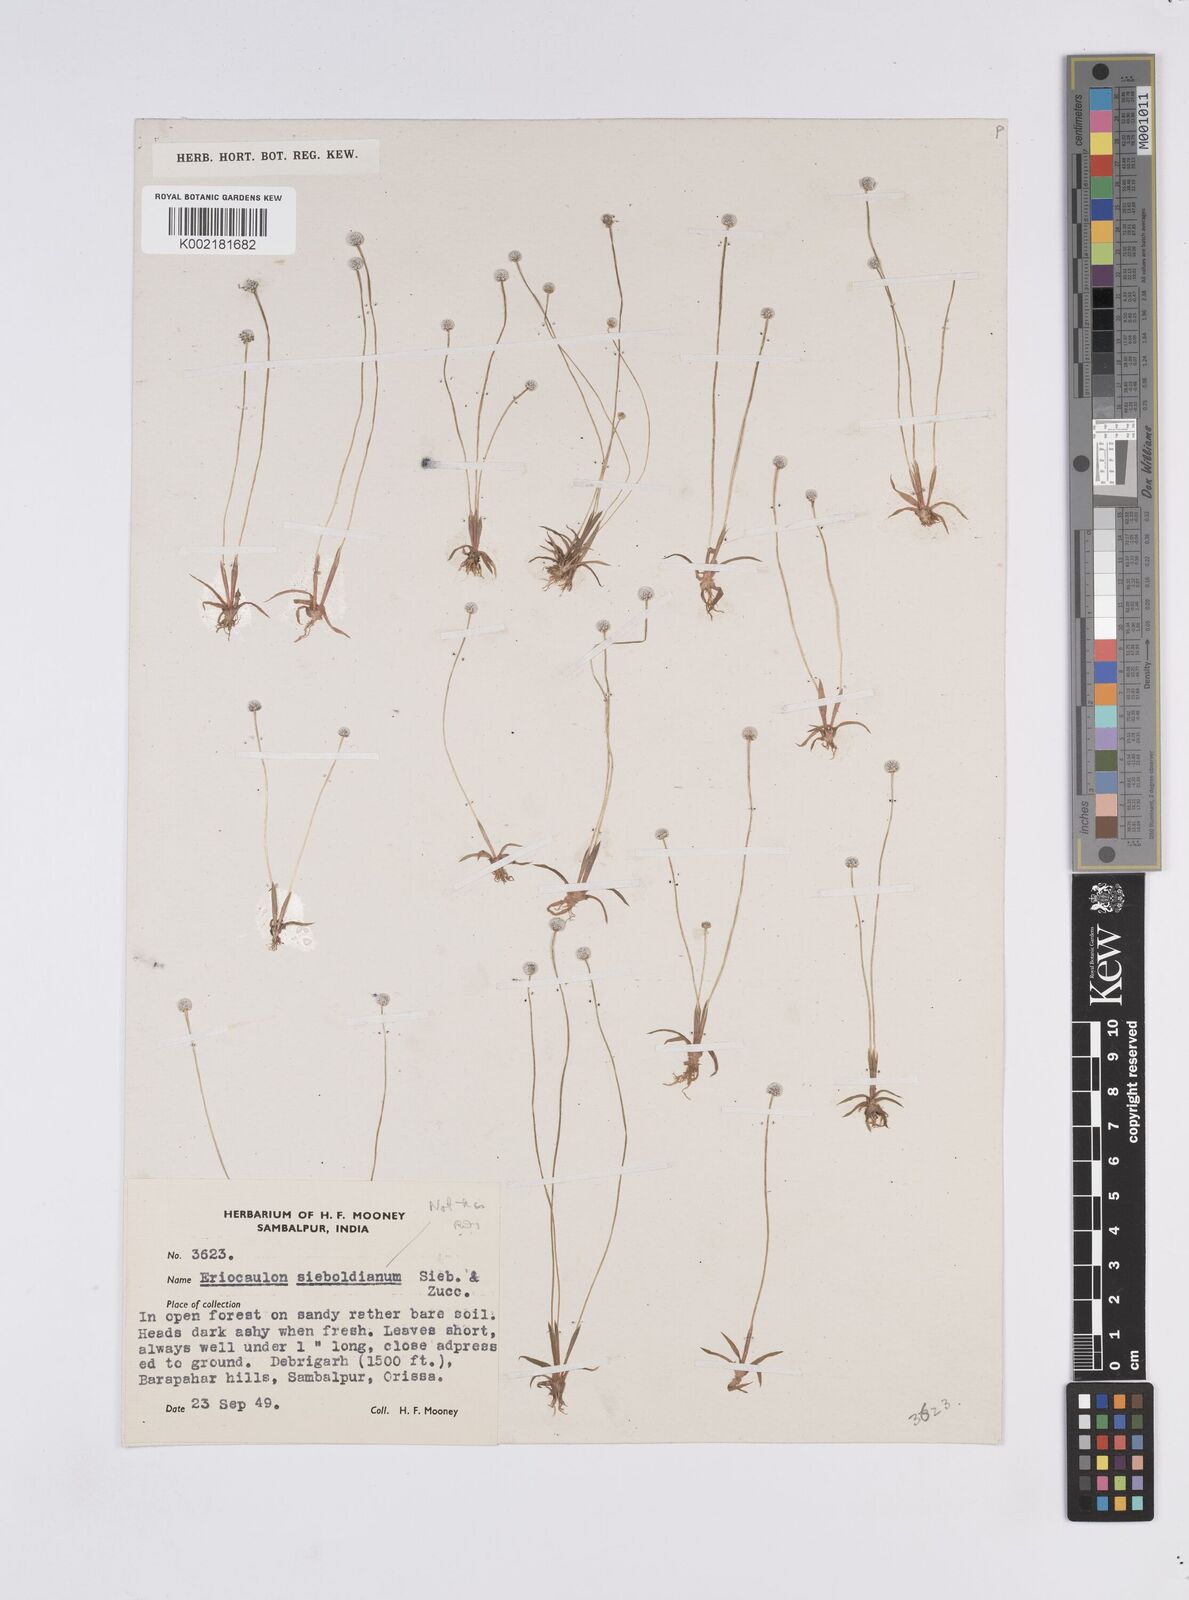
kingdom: Plantae
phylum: Tracheophyta
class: Liliopsida
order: Poales
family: Eriocaulaceae
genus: Eriocaulon
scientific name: Eriocaulon quinquangulare
